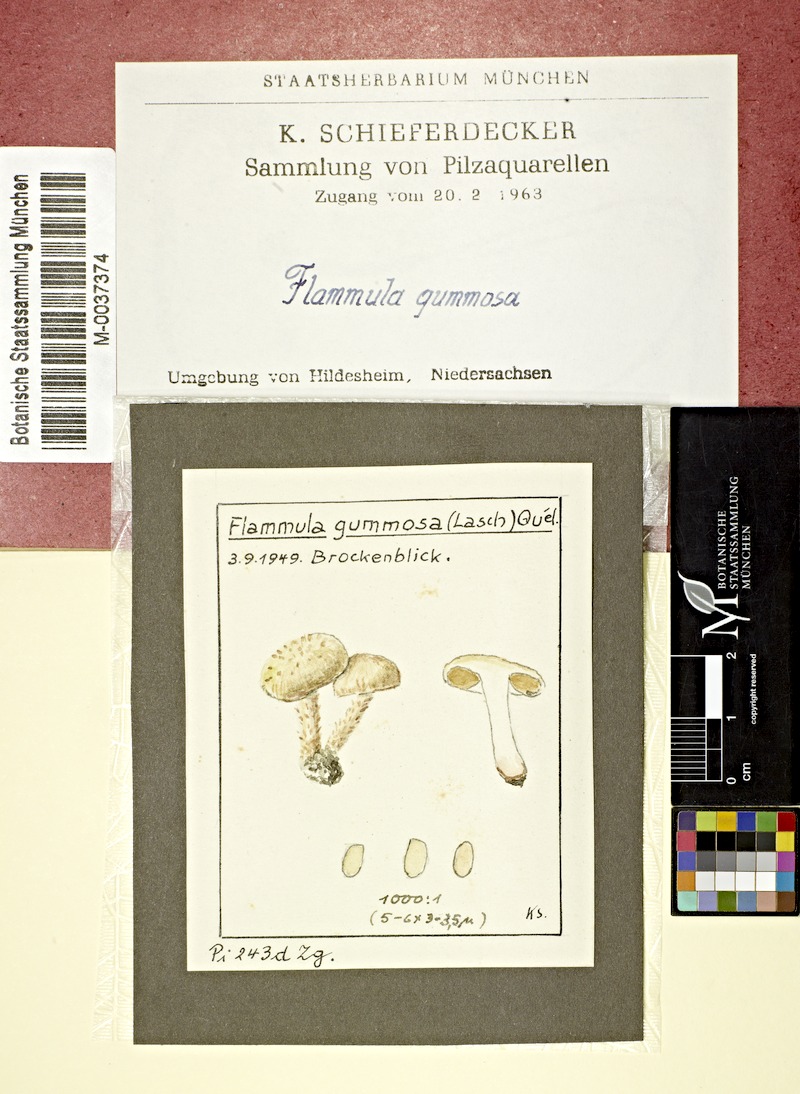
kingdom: Fungi
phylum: Basidiomycota
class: Agaricomycetes
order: Agaricales
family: Strophariaceae
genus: Pholiota
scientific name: Pholiota gummosa
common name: Sticky scalycap
